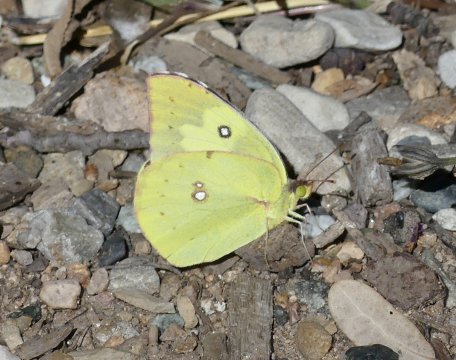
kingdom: Animalia
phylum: Arthropoda
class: Insecta
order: Lepidoptera
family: Pieridae
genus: Zerene
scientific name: Zerene cesonia
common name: Southern Dogface
